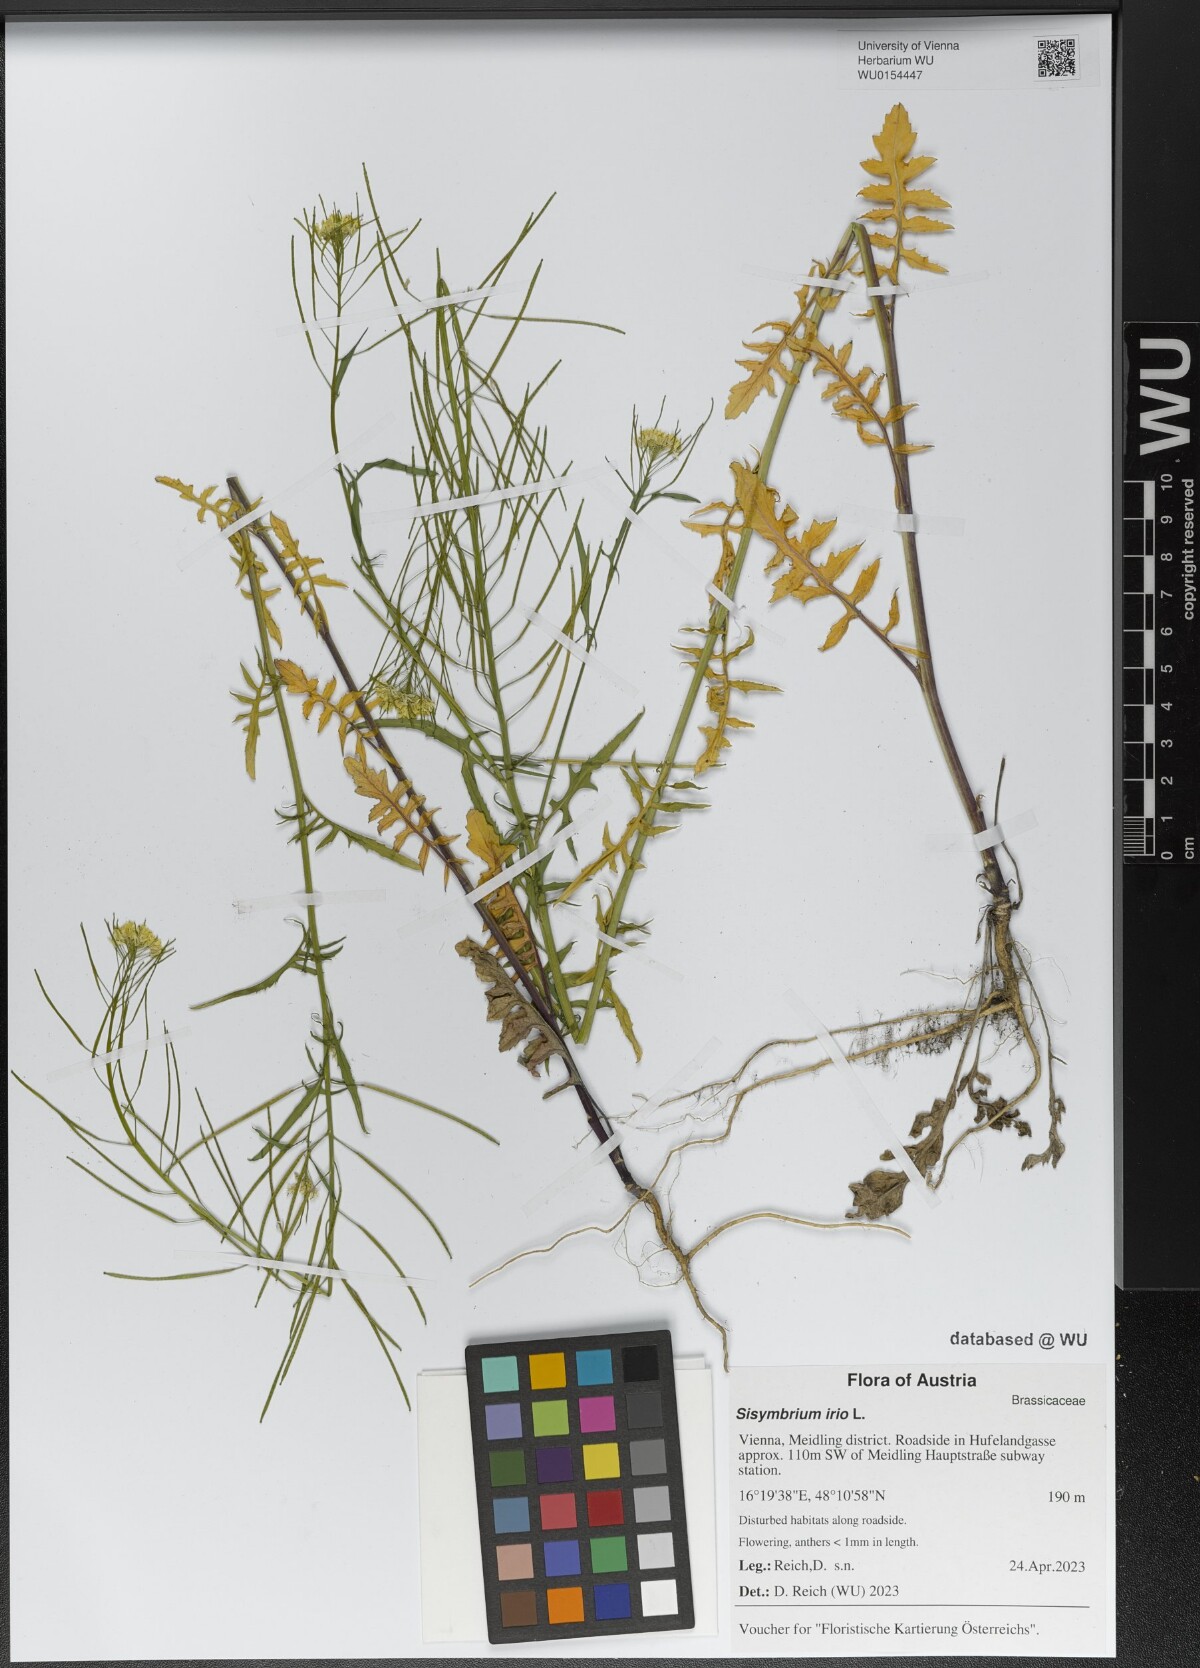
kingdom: Plantae
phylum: Tracheophyta
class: Magnoliopsida
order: Brassicales
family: Brassicaceae
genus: Sisymbrium
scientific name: Sisymbrium irio
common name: London rocket
